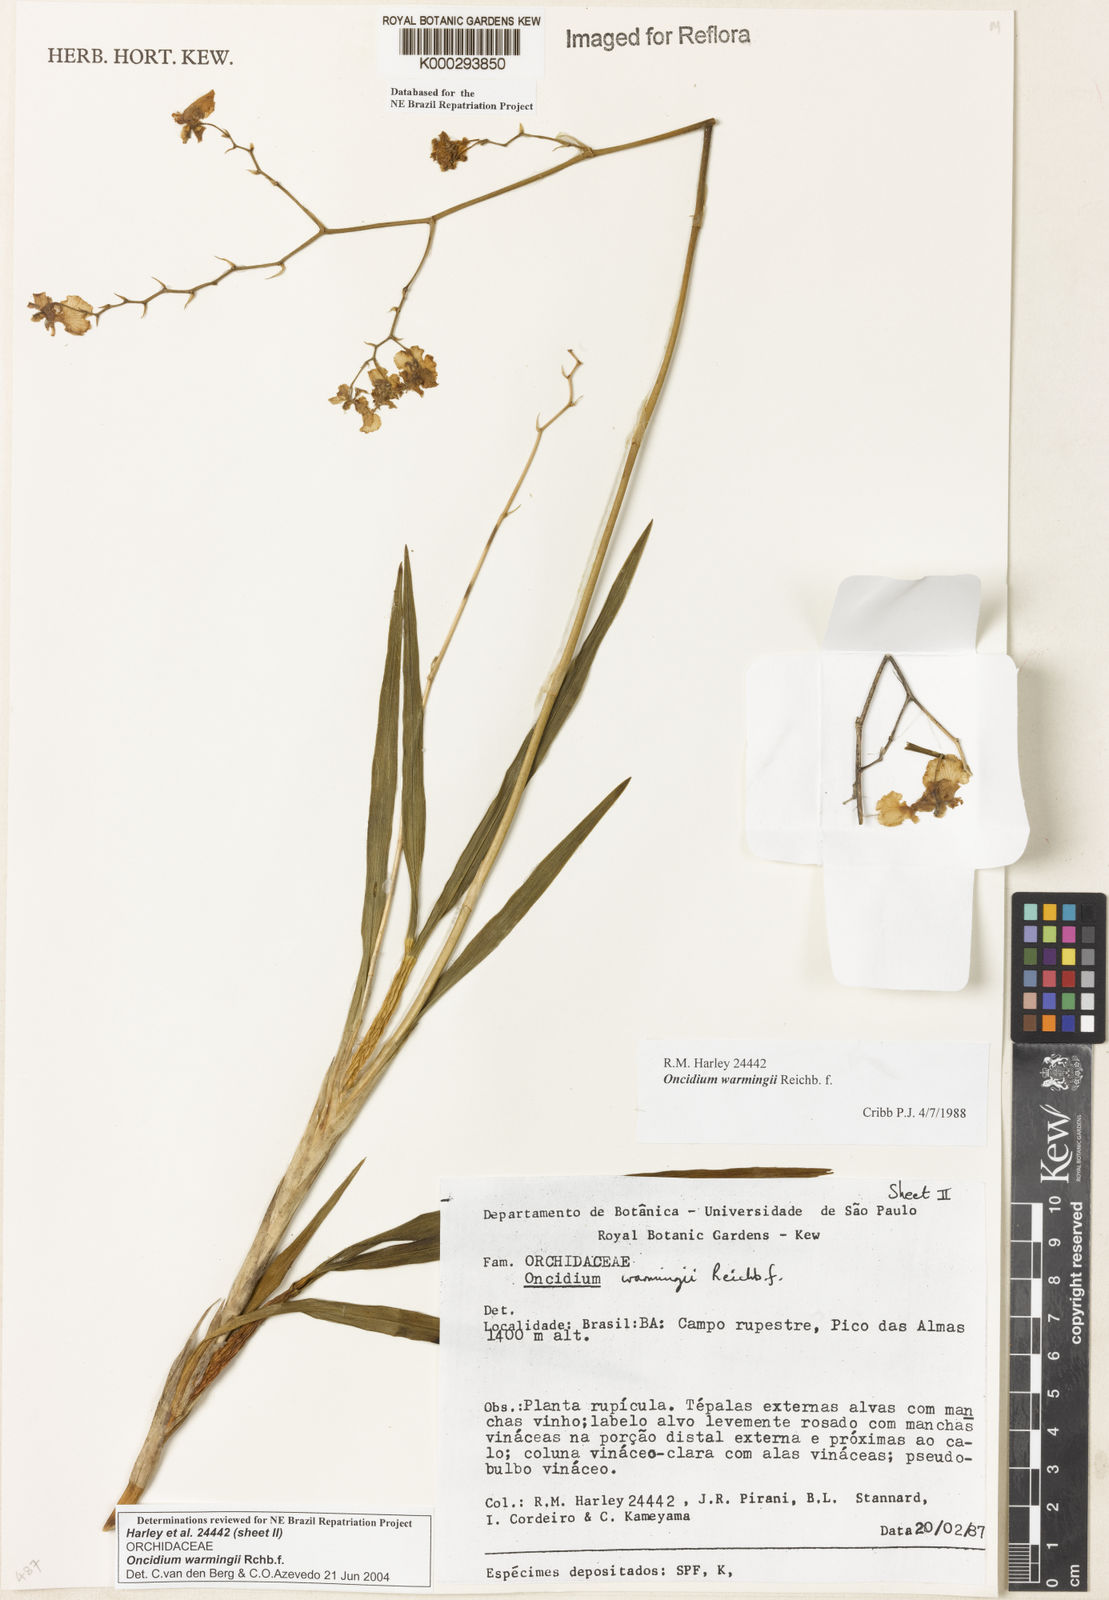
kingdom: Plantae
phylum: Tracheophyta
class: Liliopsida
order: Asparagales
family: Orchidaceae
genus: Gomesa
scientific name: Gomesa warmingii
